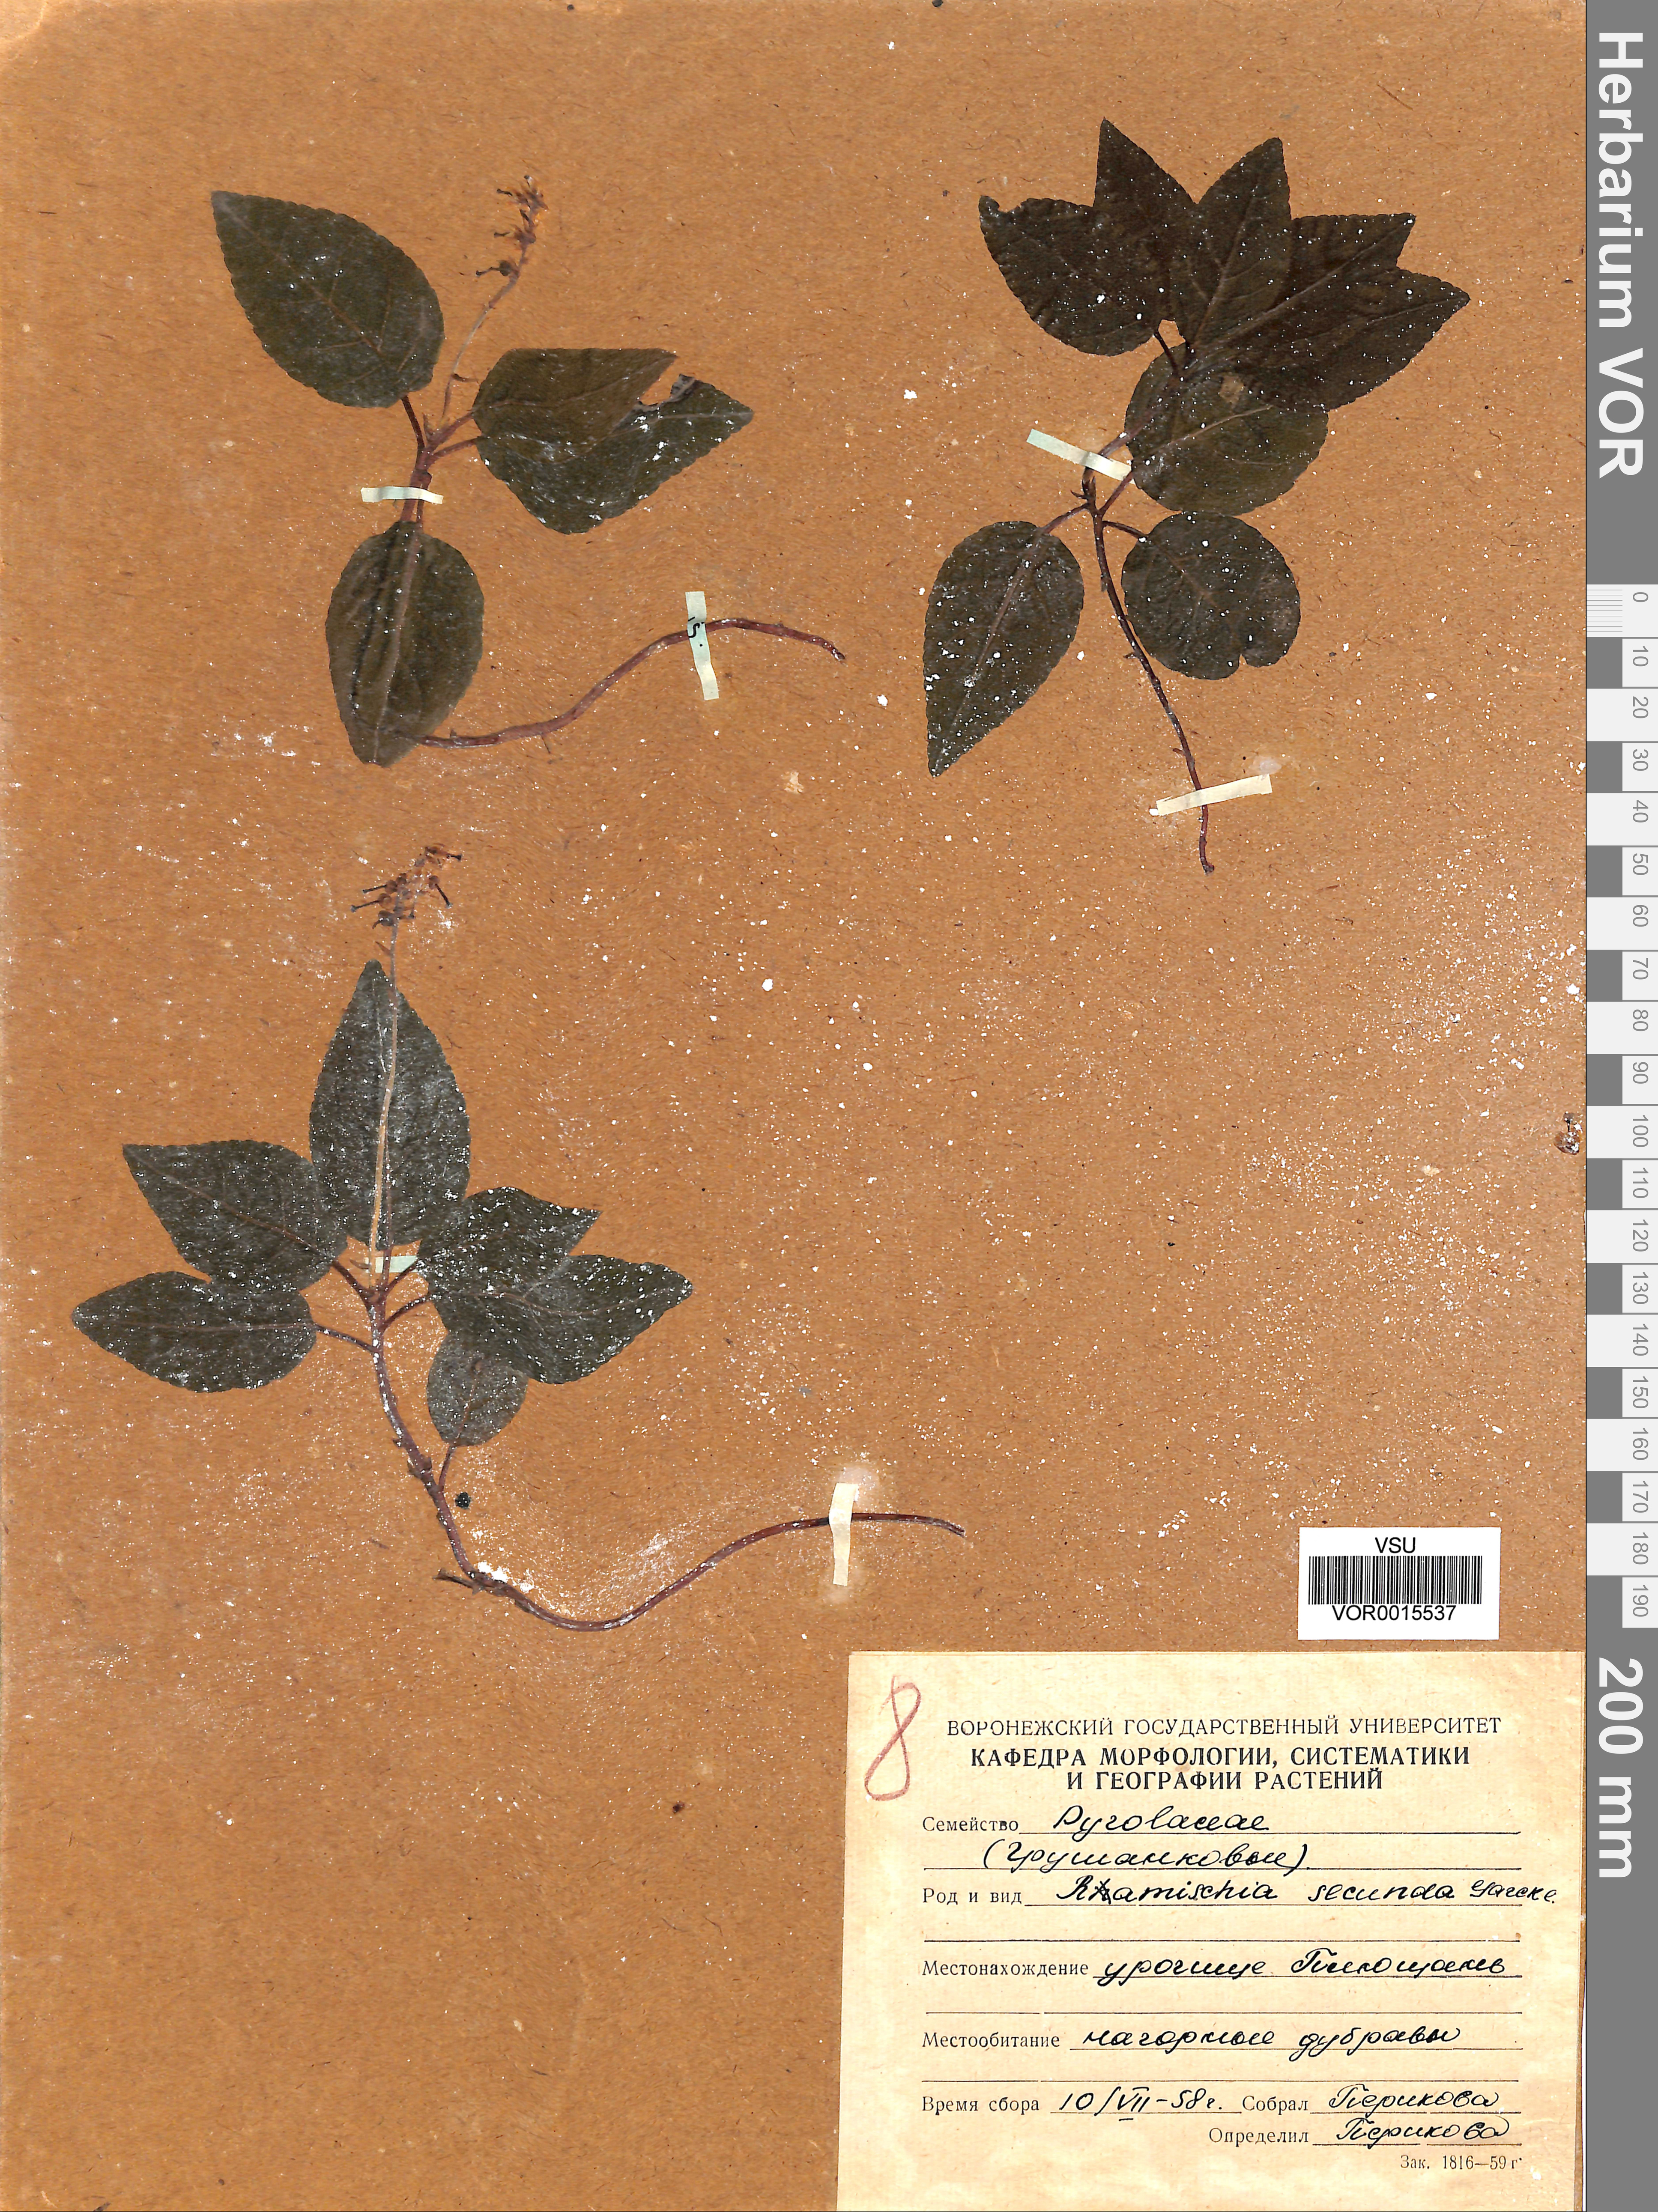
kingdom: Plantae
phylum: Tracheophyta
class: Magnoliopsida
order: Ericales
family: Ericaceae
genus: Orthilia
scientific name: Orthilia secunda
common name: One-sided orthilia
